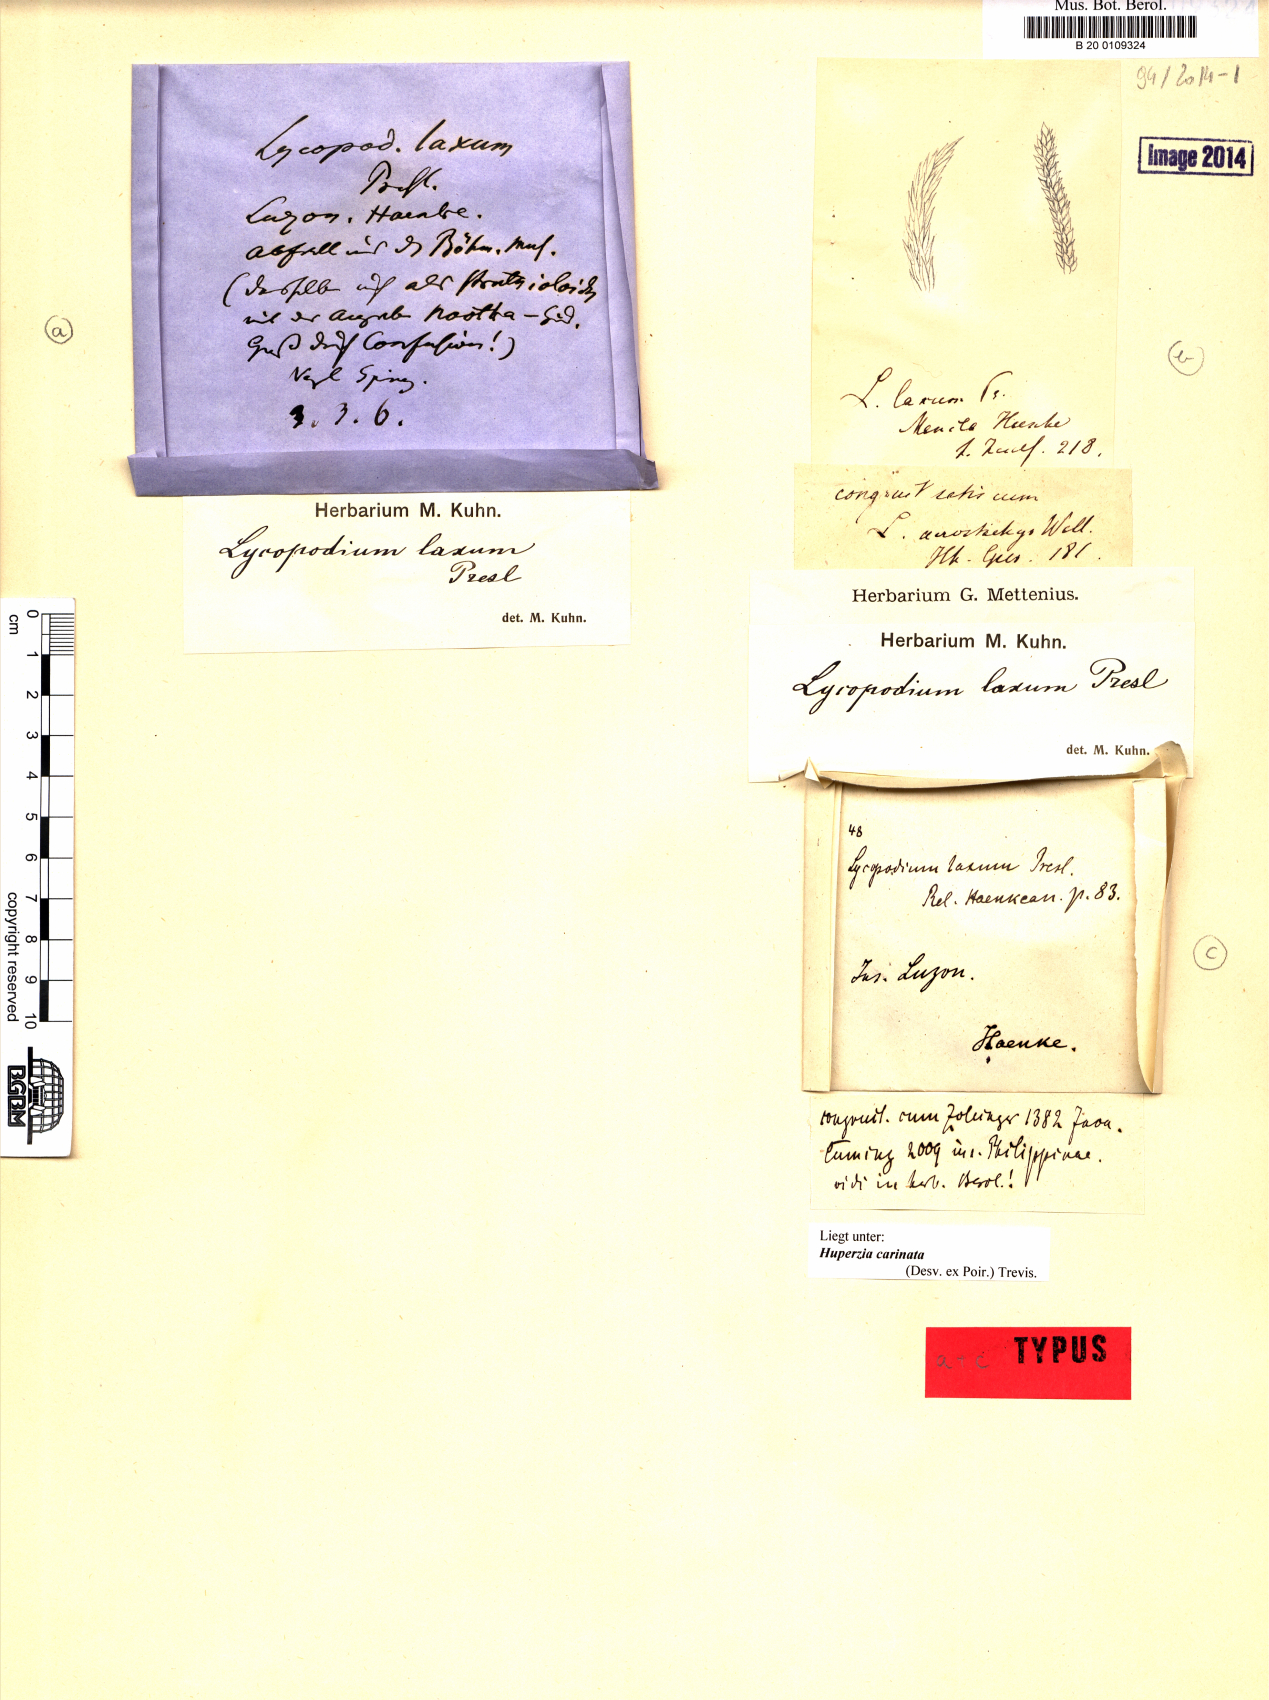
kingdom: Plantae
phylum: Tracheophyta
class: Lycopodiopsida
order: Lycopodiales
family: Lycopodiaceae
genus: Phlegmariurus
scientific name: Phlegmariurus carinatus
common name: Keeled tassel-fern
